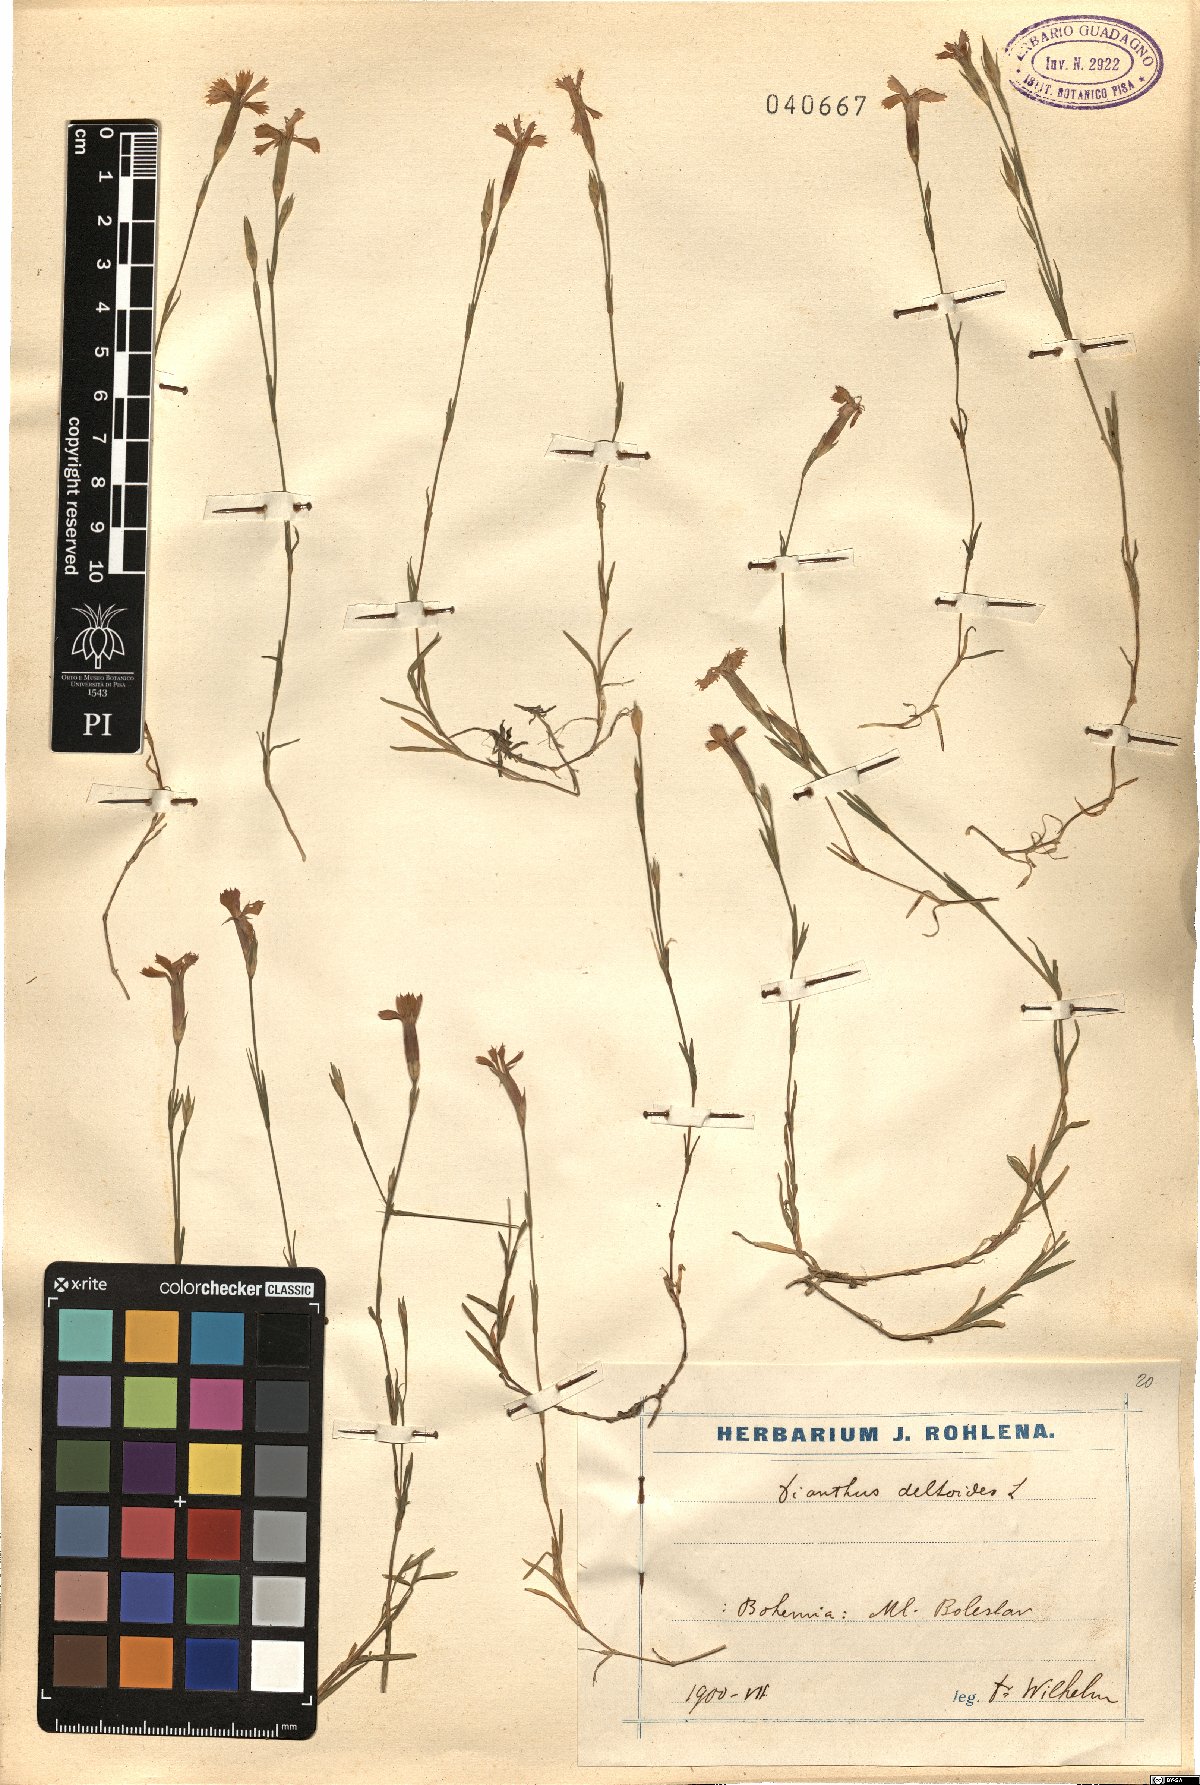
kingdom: Plantae
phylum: Tracheophyta
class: Magnoliopsida
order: Caryophyllales
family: Caryophyllaceae
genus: Dianthus
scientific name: Dianthus deltoides
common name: Maiden pink
